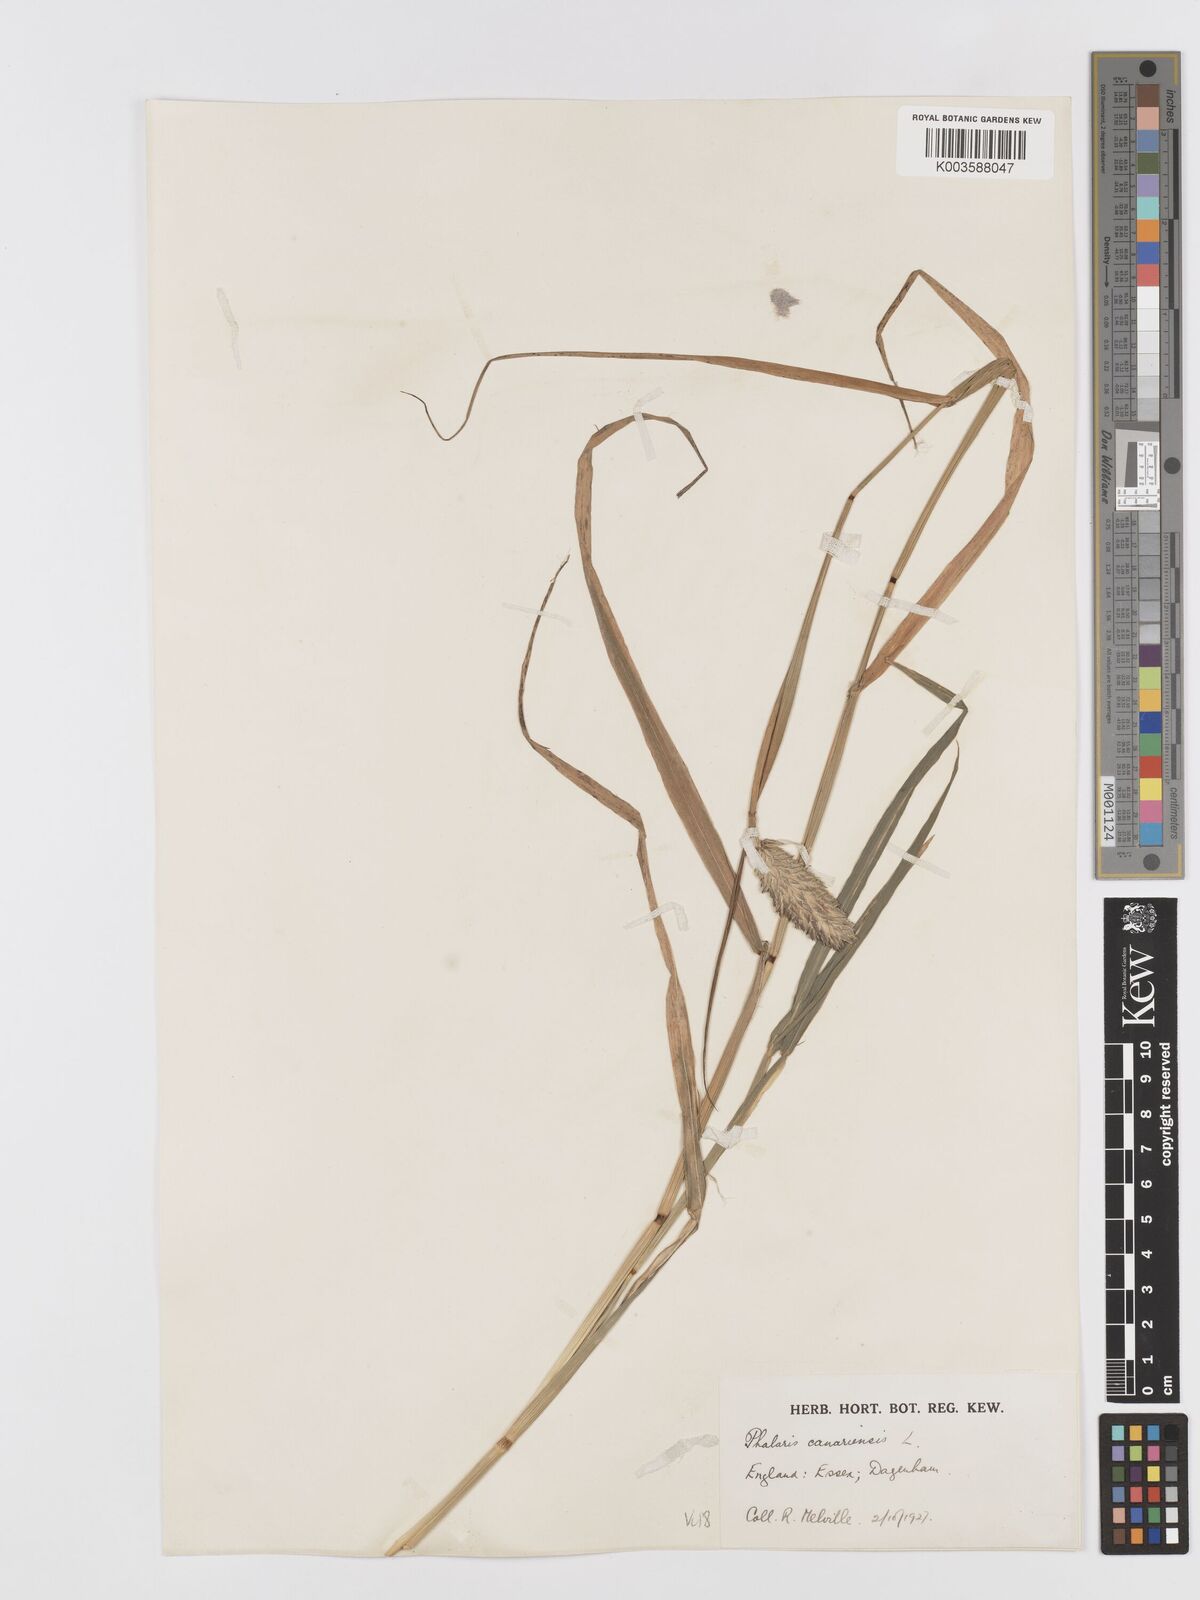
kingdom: Plantae
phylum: Tracheophyta
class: Liliopsida
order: Poales
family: Poaceae
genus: Phalaris
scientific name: Phalaris canariensis
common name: Annual canarygrass
